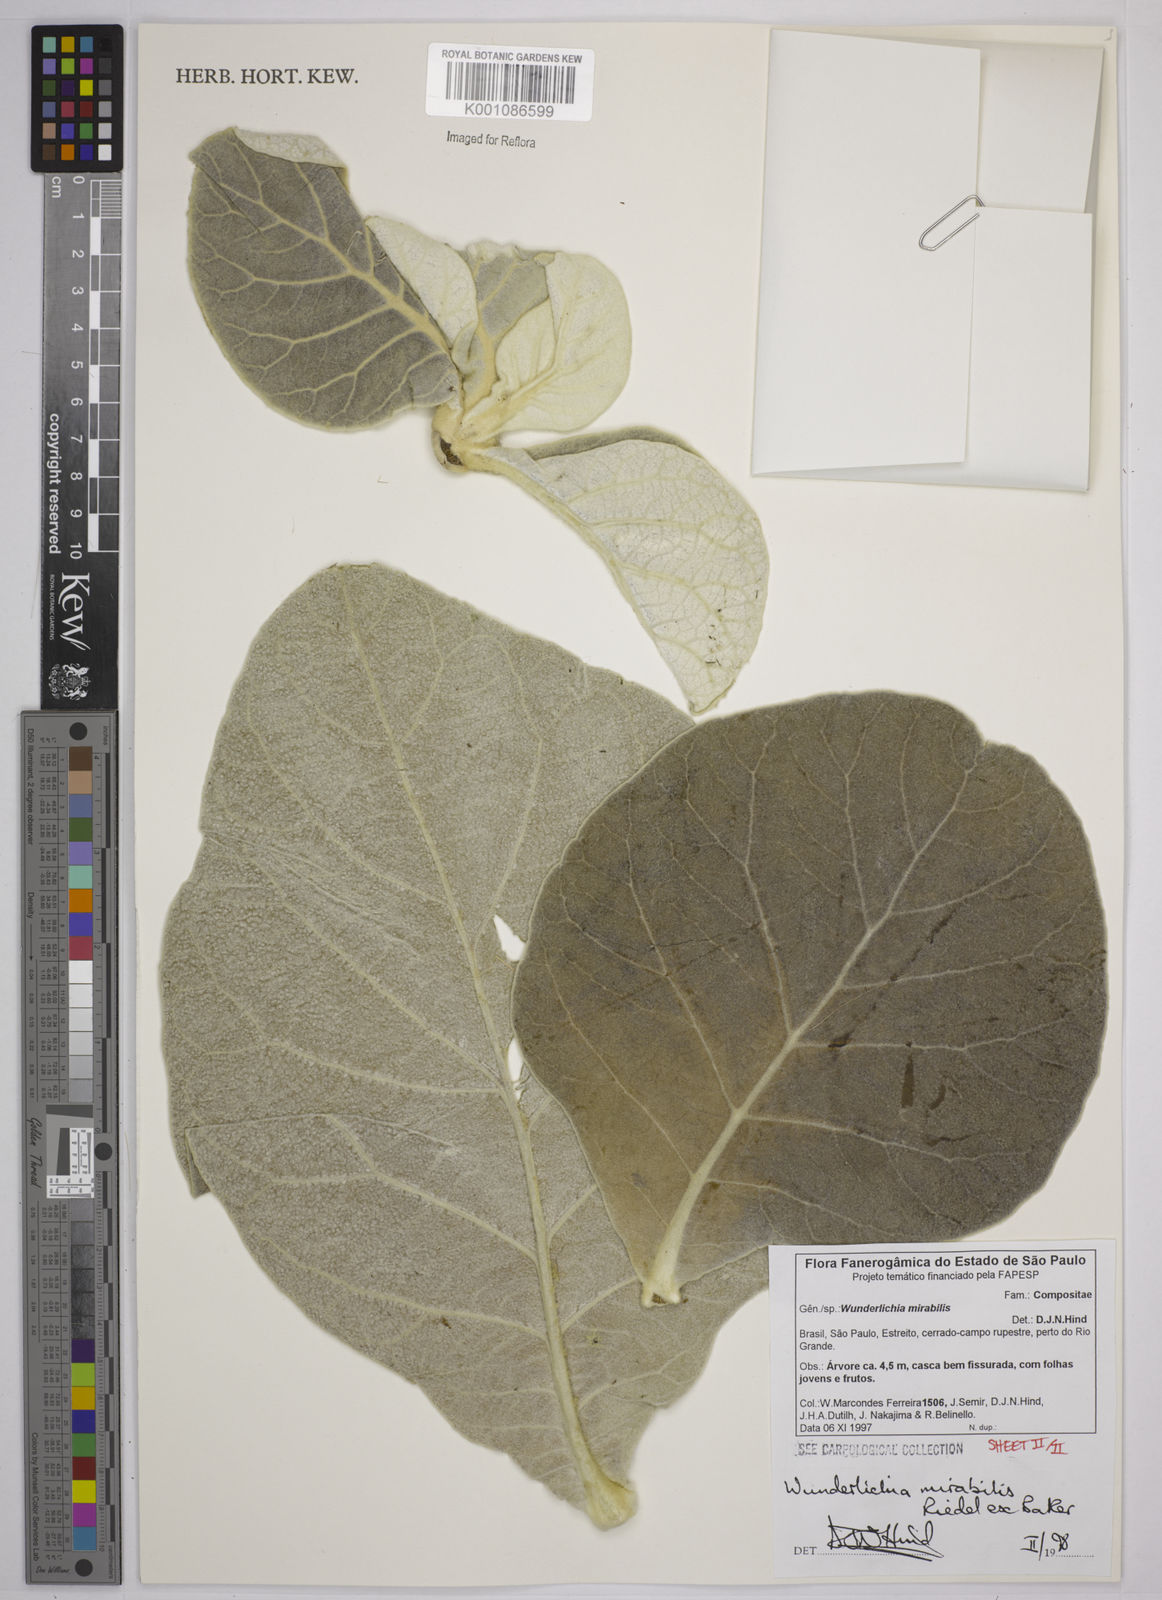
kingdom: Plantae
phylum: Tracheophyta
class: Magnoliopsida
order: Asterales
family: Asteraceae
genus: Wunderlichia
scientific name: Wunderlichia mirabilis
